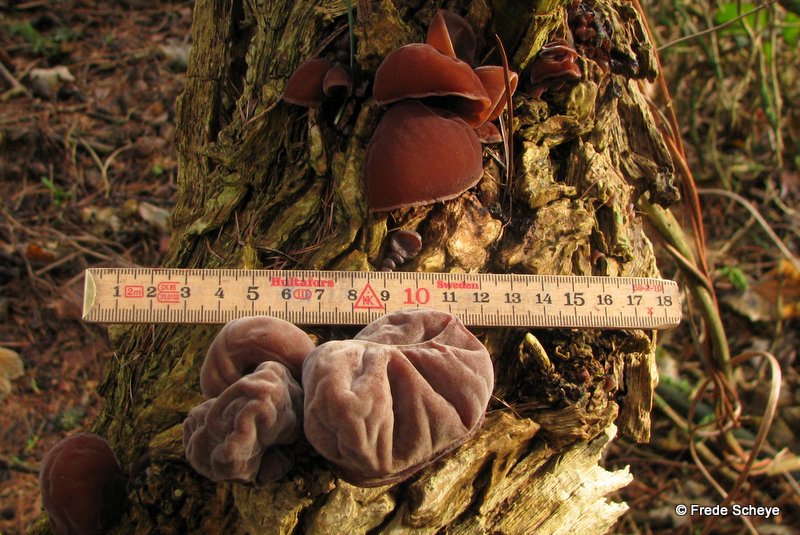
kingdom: Fungi
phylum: Basidiomycota
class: Agaricomycetes
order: Auriculariales
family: Auriculariaceae
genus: Auricularia
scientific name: Auricularia auricula-judae
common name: almindelig judasøre
